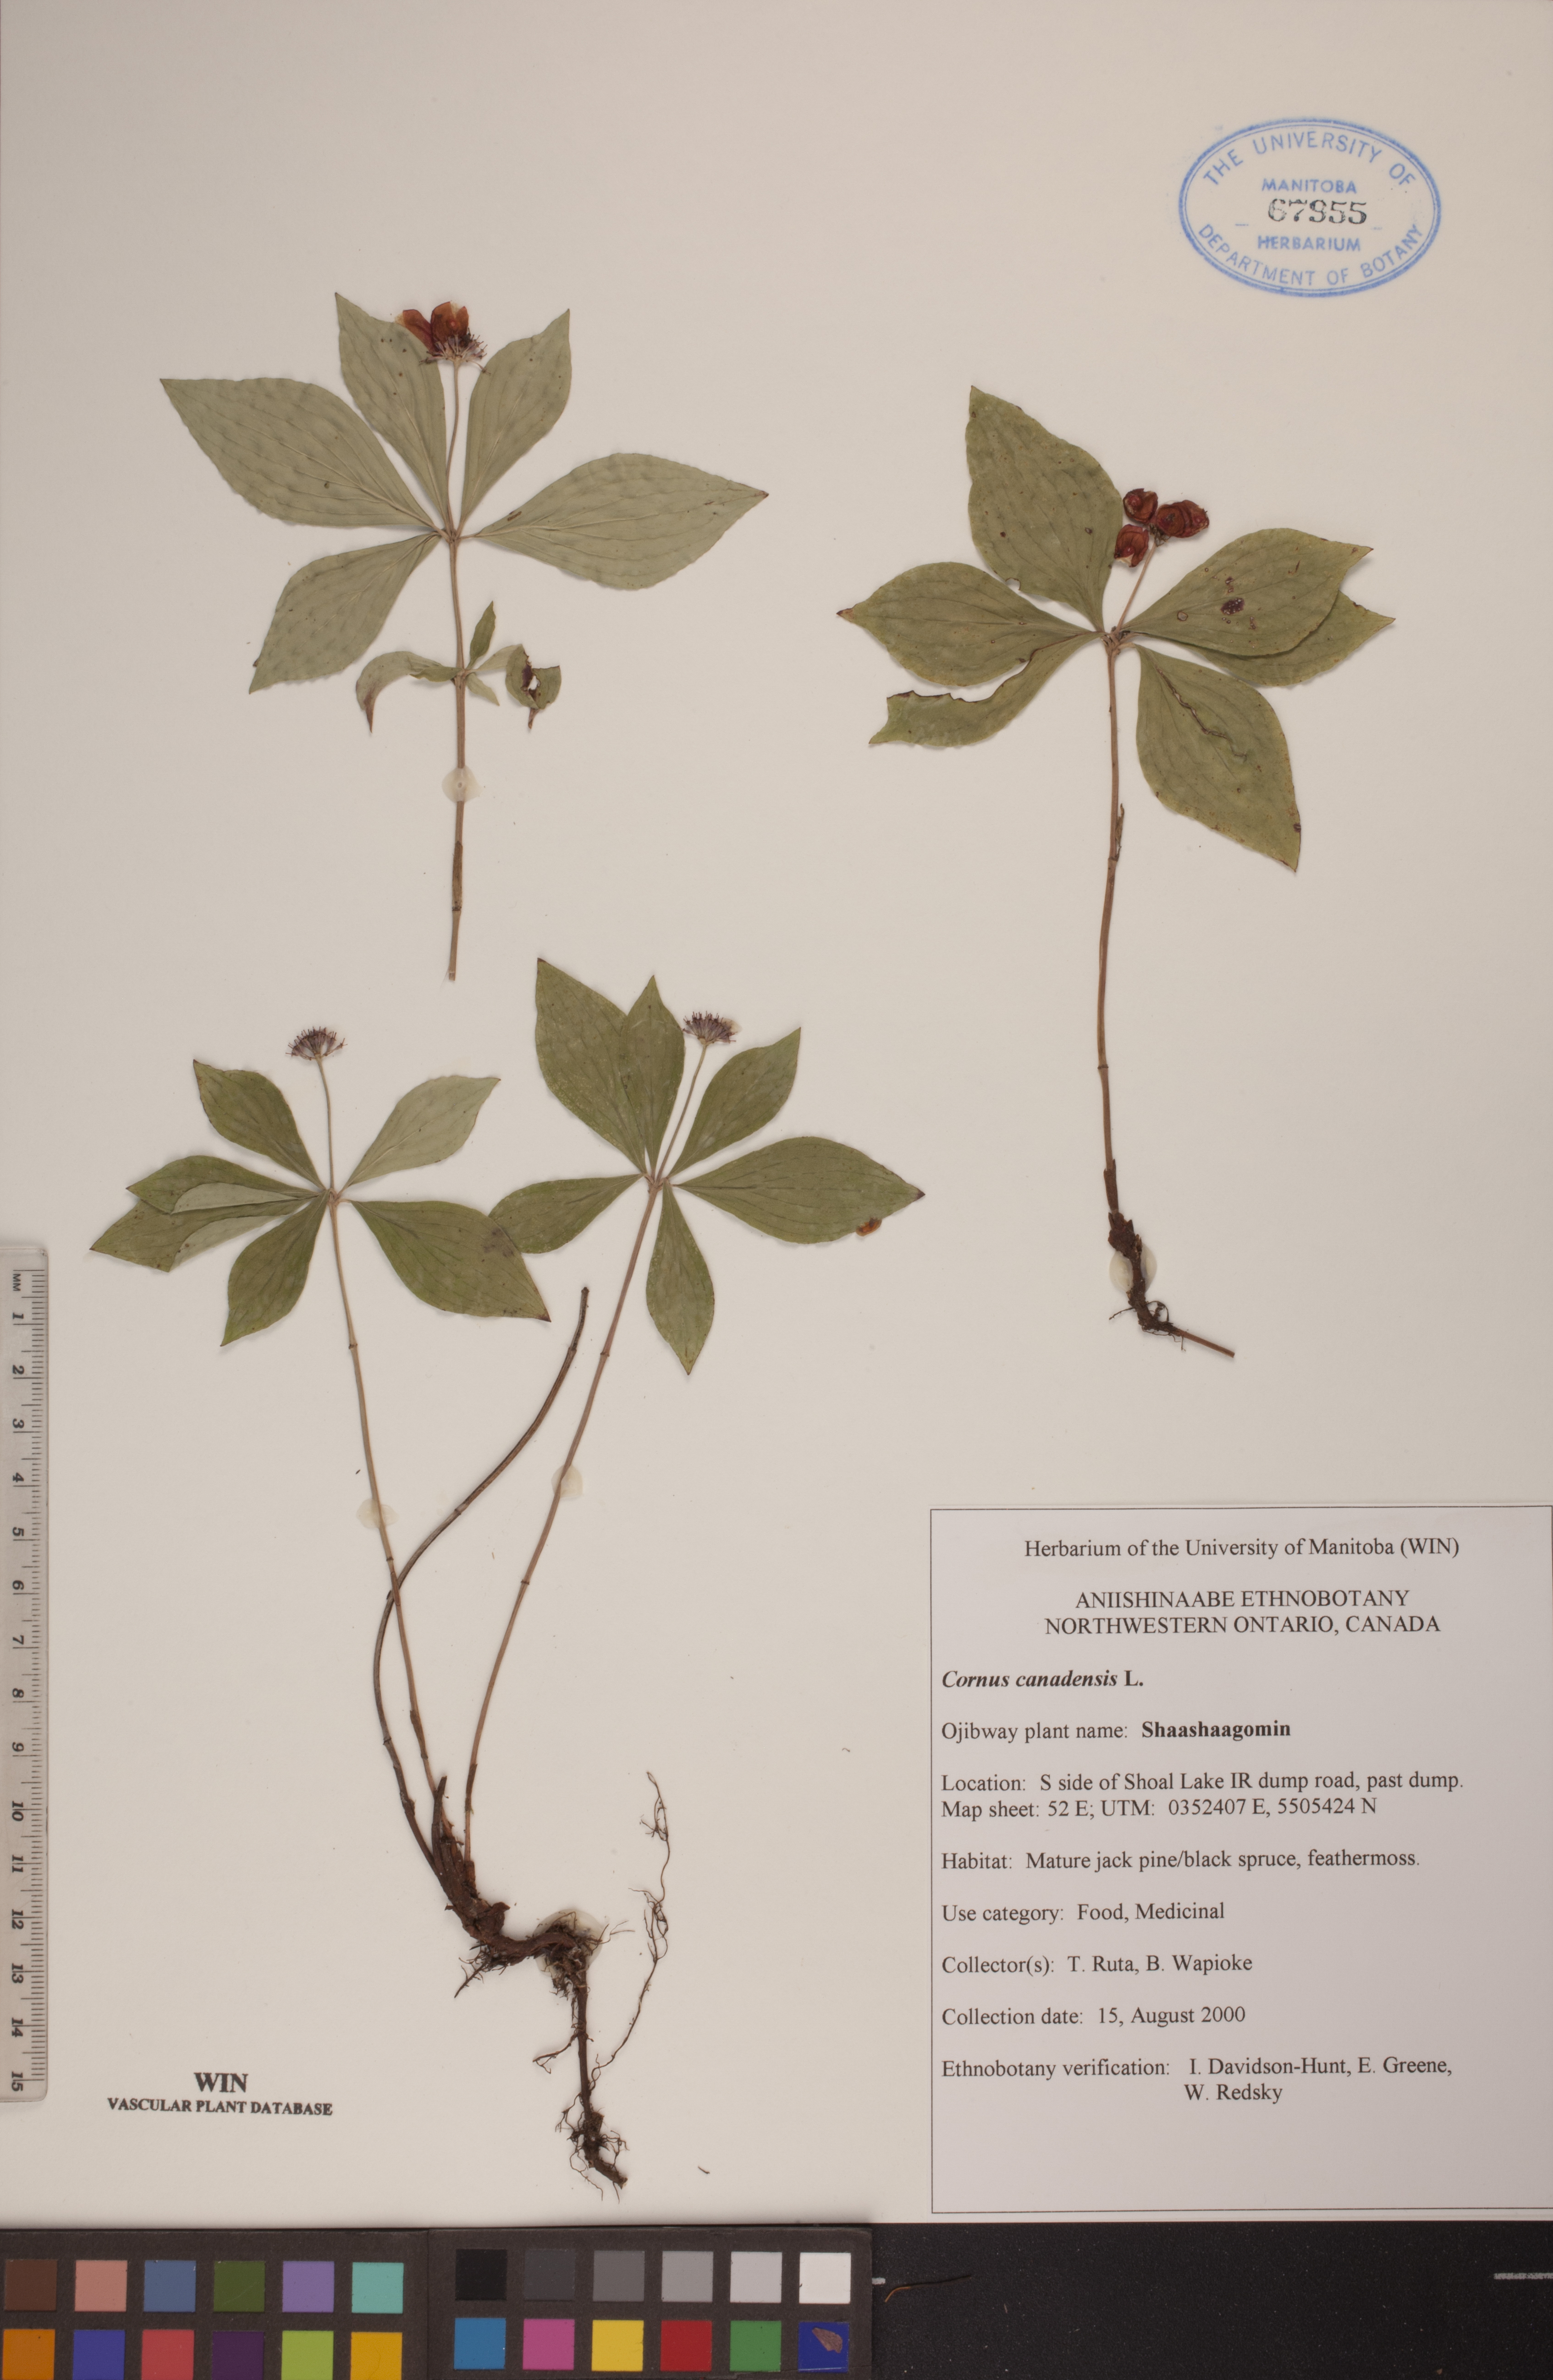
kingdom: Plantae
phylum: Tracheophyta
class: Magnoliopsida
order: Cornales
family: Cornaceae
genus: Cornus
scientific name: Cornus canadensis
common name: Creeping dogwood
